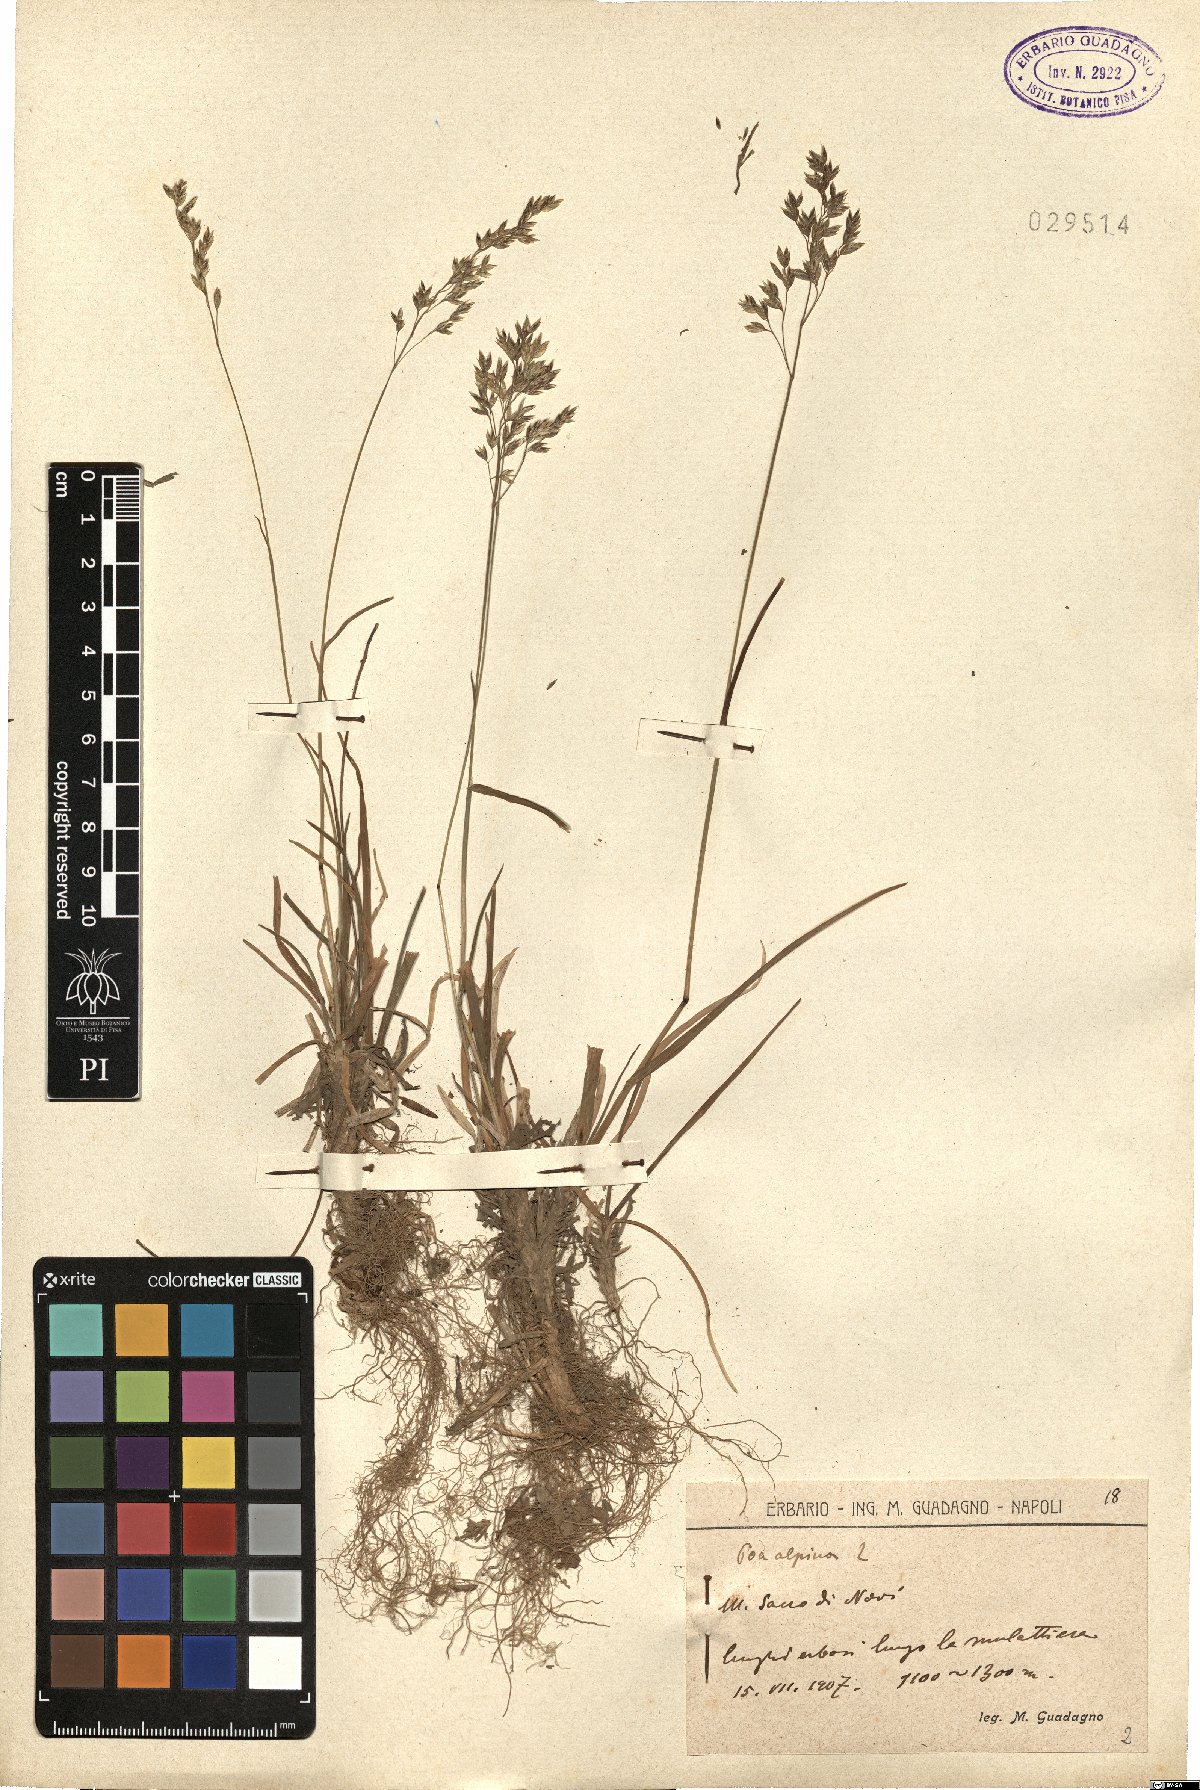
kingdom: Plantae
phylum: Tracheophyta
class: Liliopsida
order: Poales
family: Poaceae
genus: Poa
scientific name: Poa alpina
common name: Alpine bluegrass
